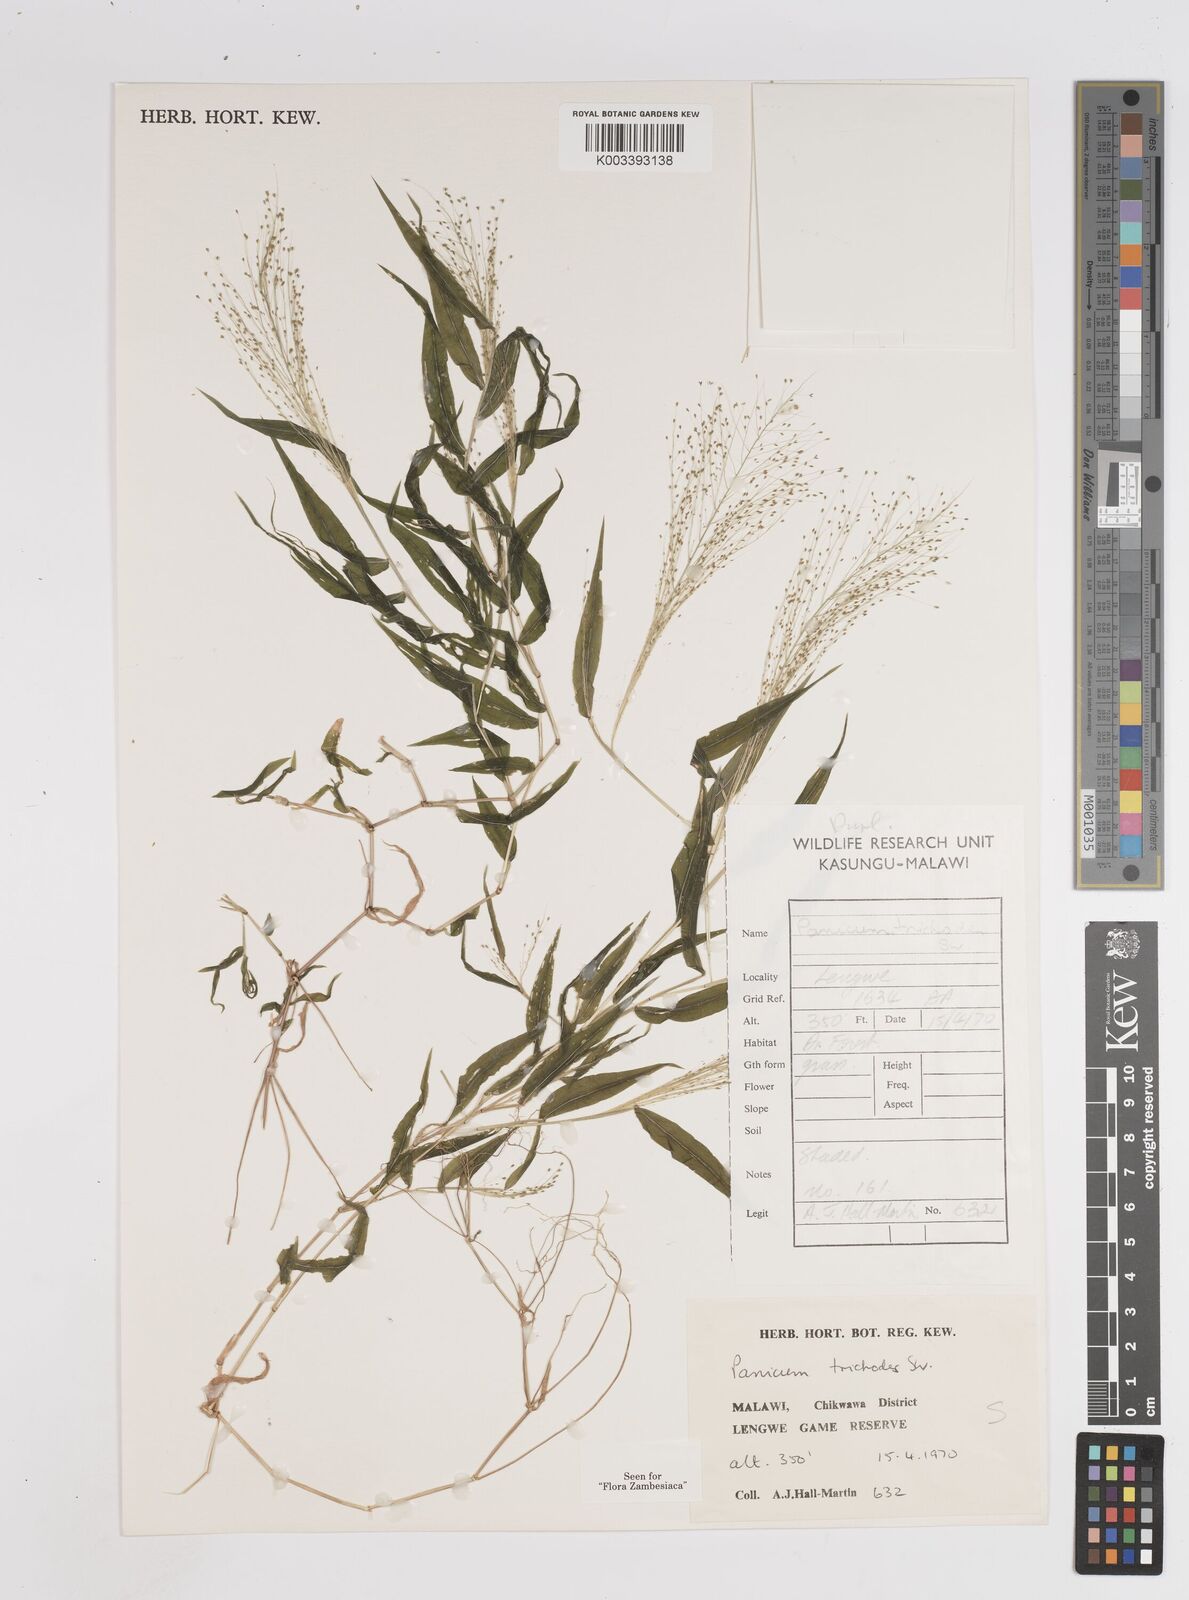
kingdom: Plantae
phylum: Tracheophyta
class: Liliopsida
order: Poales
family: Poaceae
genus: Panicum
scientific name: Panicum trichoides
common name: Tickle grass
